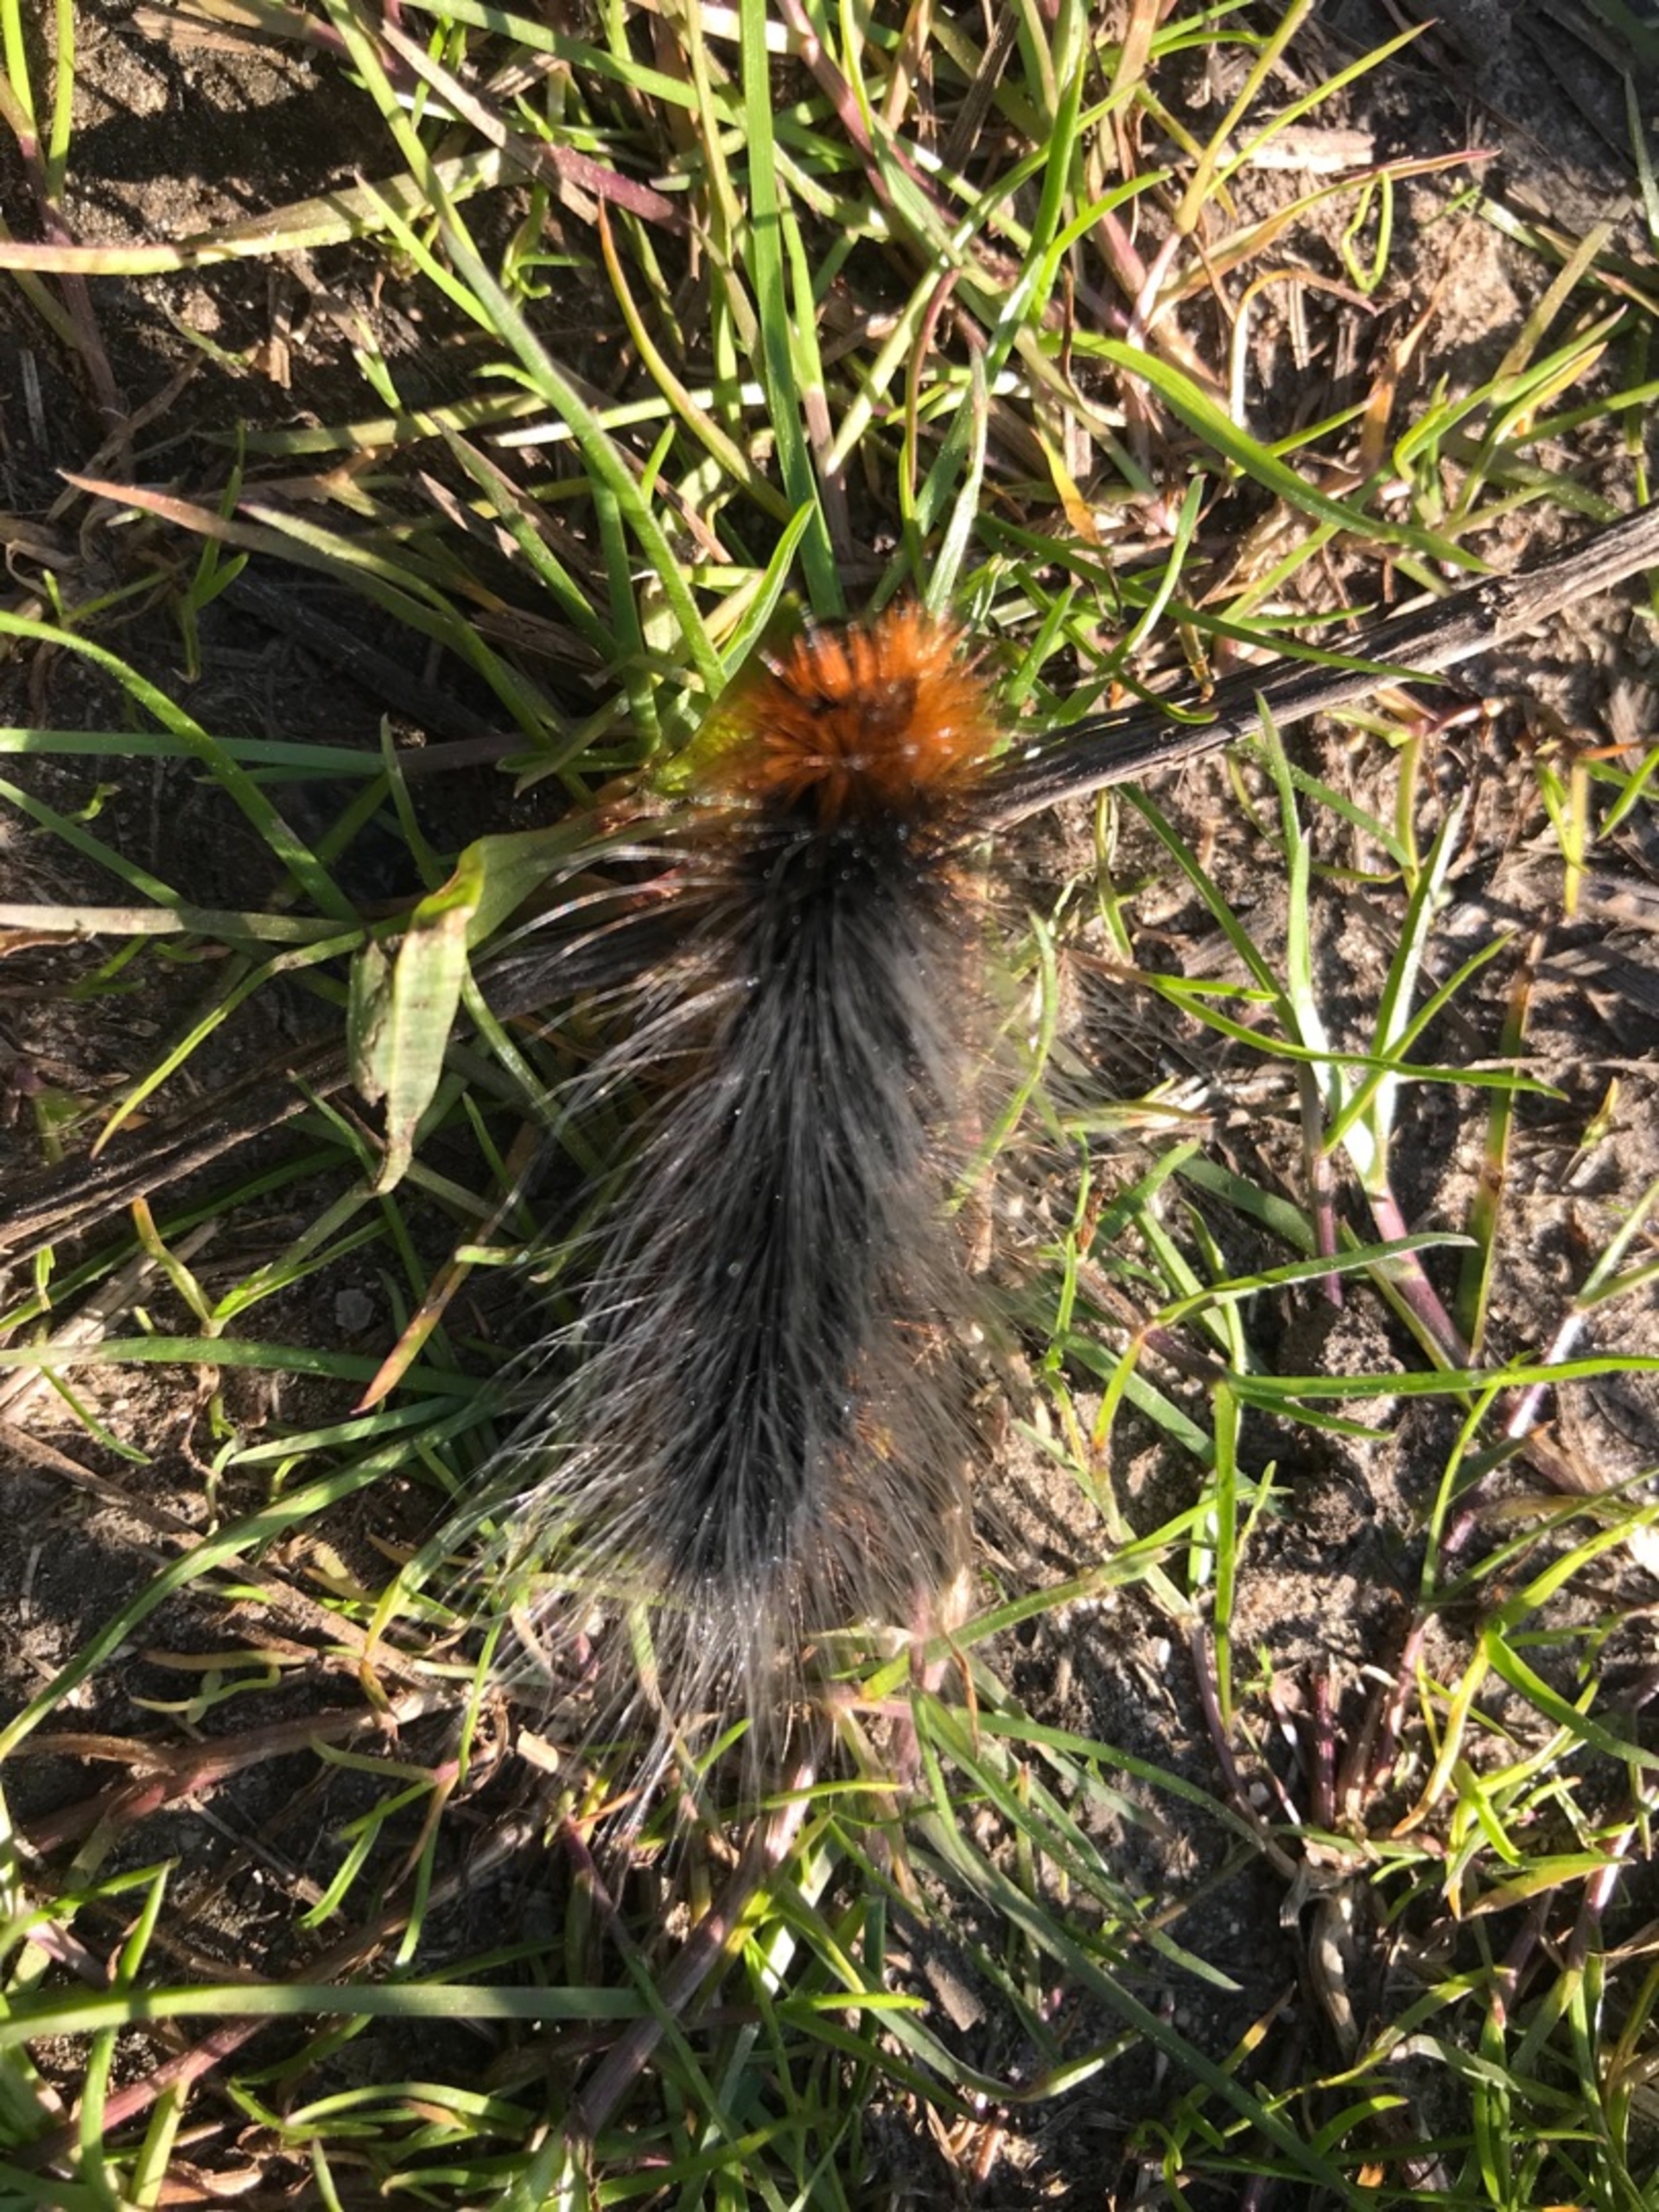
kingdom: Animalia
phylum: Arthropoda
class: Insecta
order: Lepidoptera
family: Erebidae
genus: Arctia
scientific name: Arctia caja
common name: Brun bjørn
